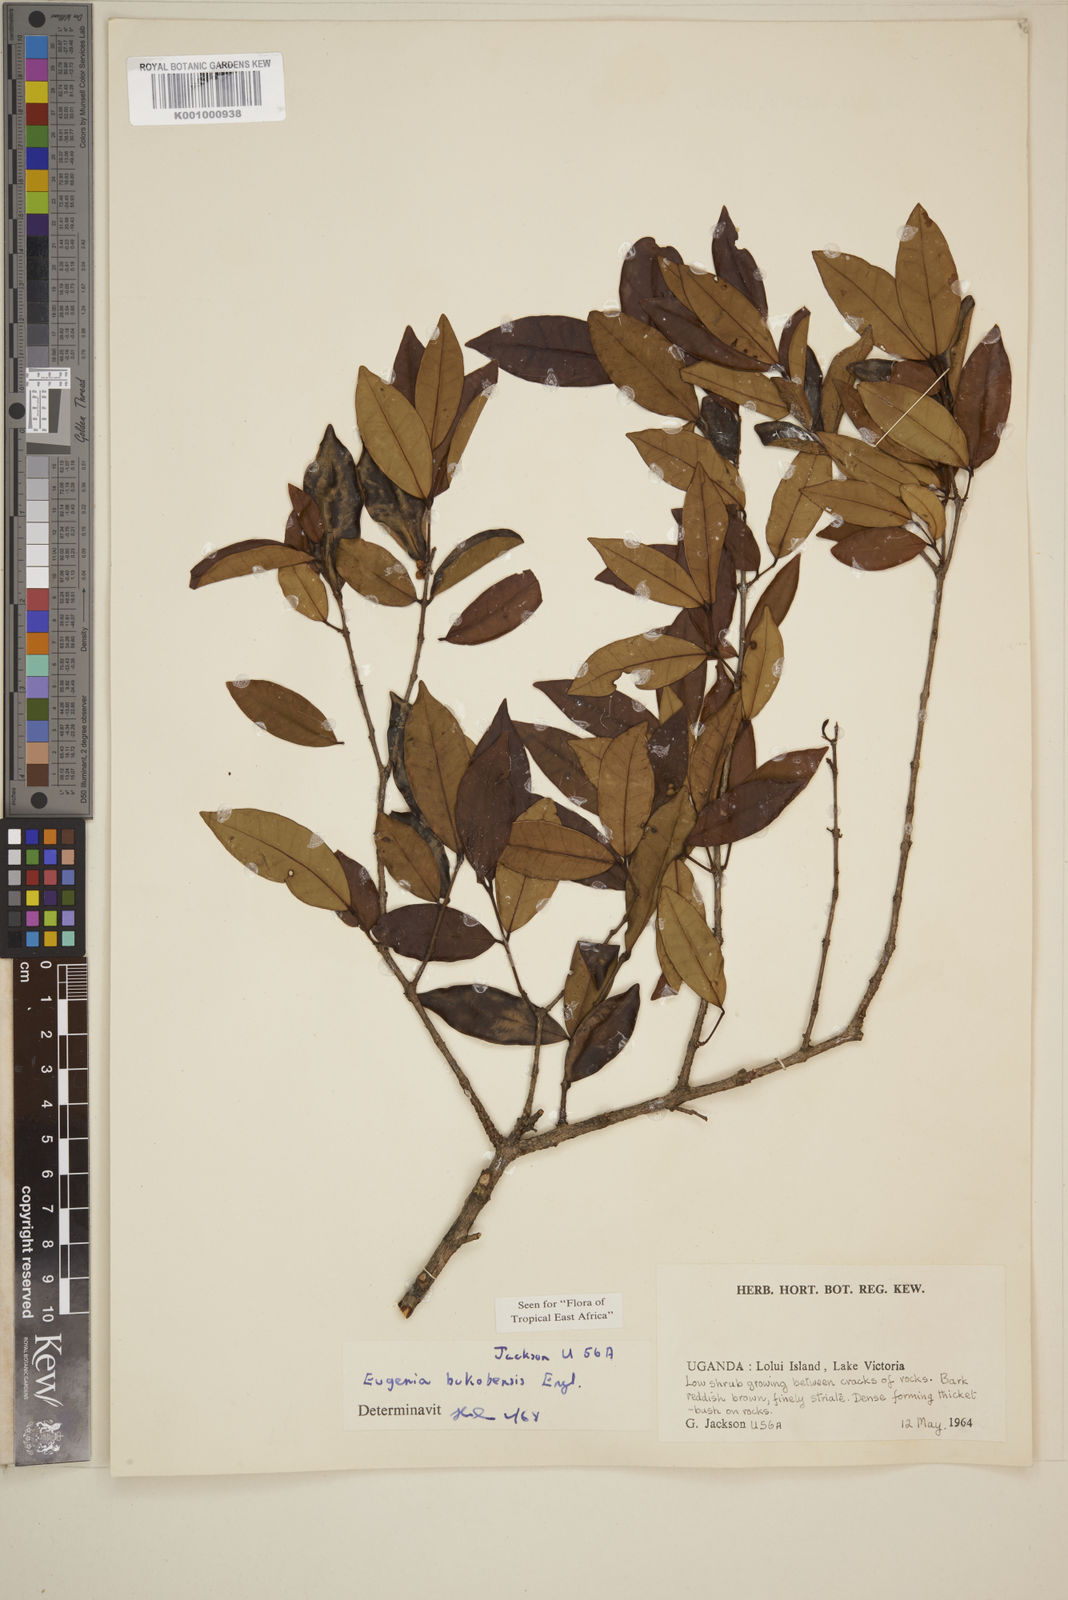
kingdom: Plantae
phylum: Tracheophyta
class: Magnoliopsida
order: Myrtales
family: Myrtaceae
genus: Eugenia
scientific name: Eugenia bukobensis
